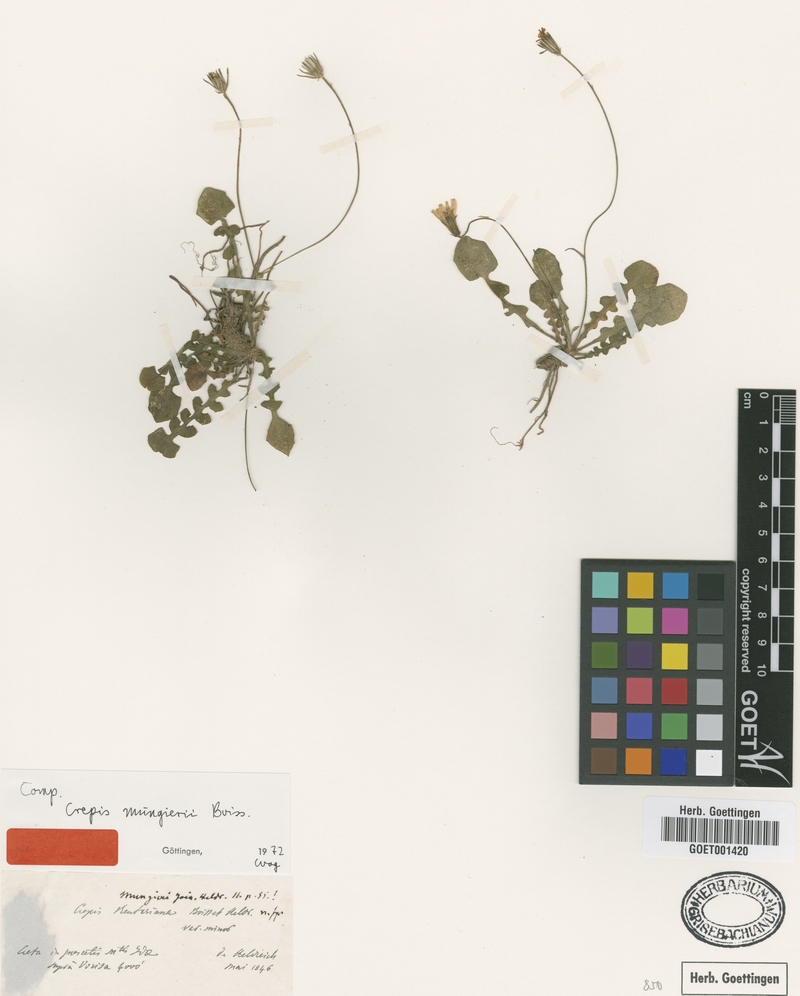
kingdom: Plantae
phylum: Tracheophyta
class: Magnoliopsida
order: Asterales
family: Asteraceae
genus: Crepis
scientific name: Crepis fraasii
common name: Hawk's-beard
